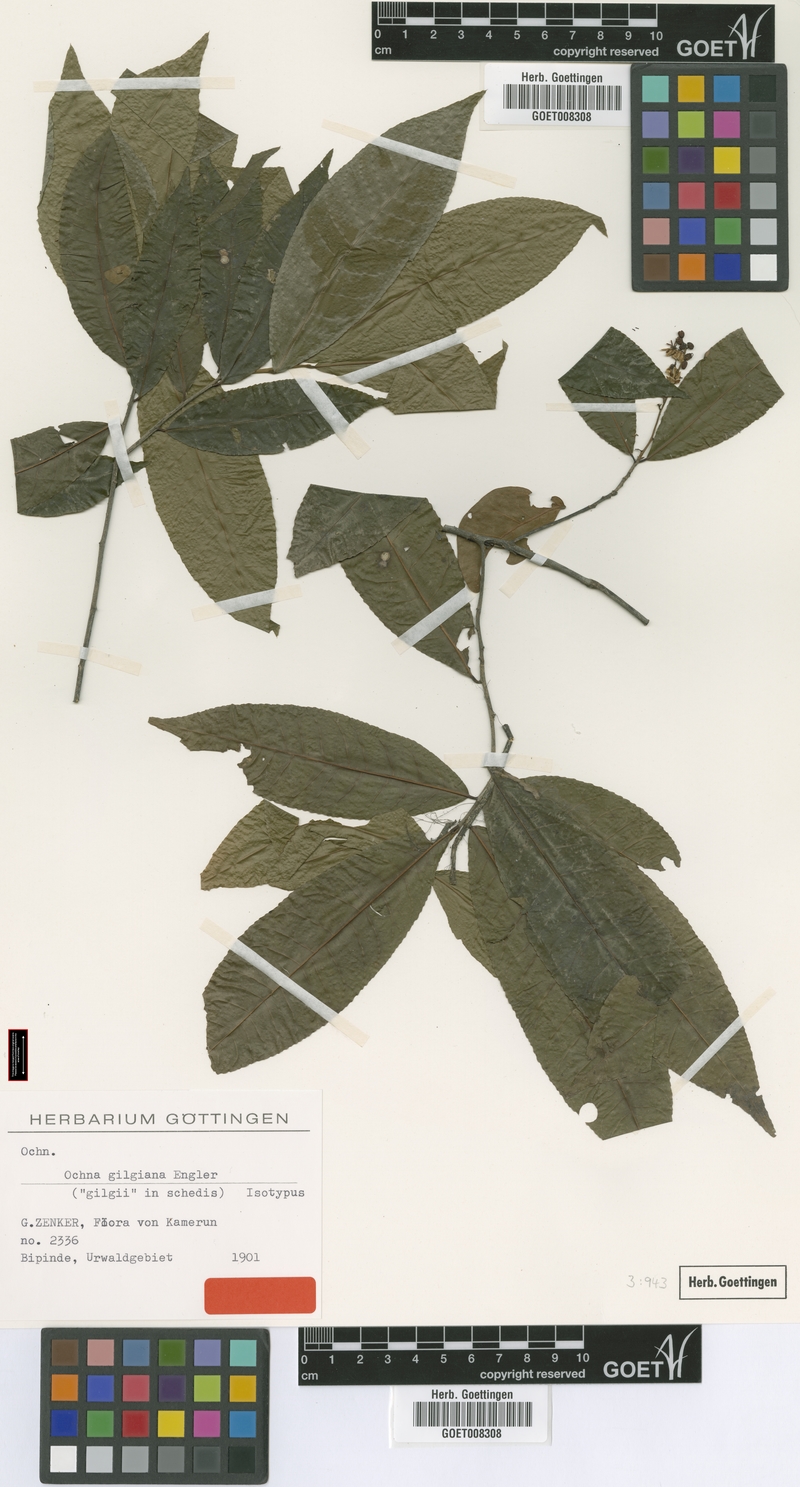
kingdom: Plantae
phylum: Tracheophyta
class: Magnoliopsida
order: Malpighiales
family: Ochnaceae
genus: Ochna
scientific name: Ochna membranacea
